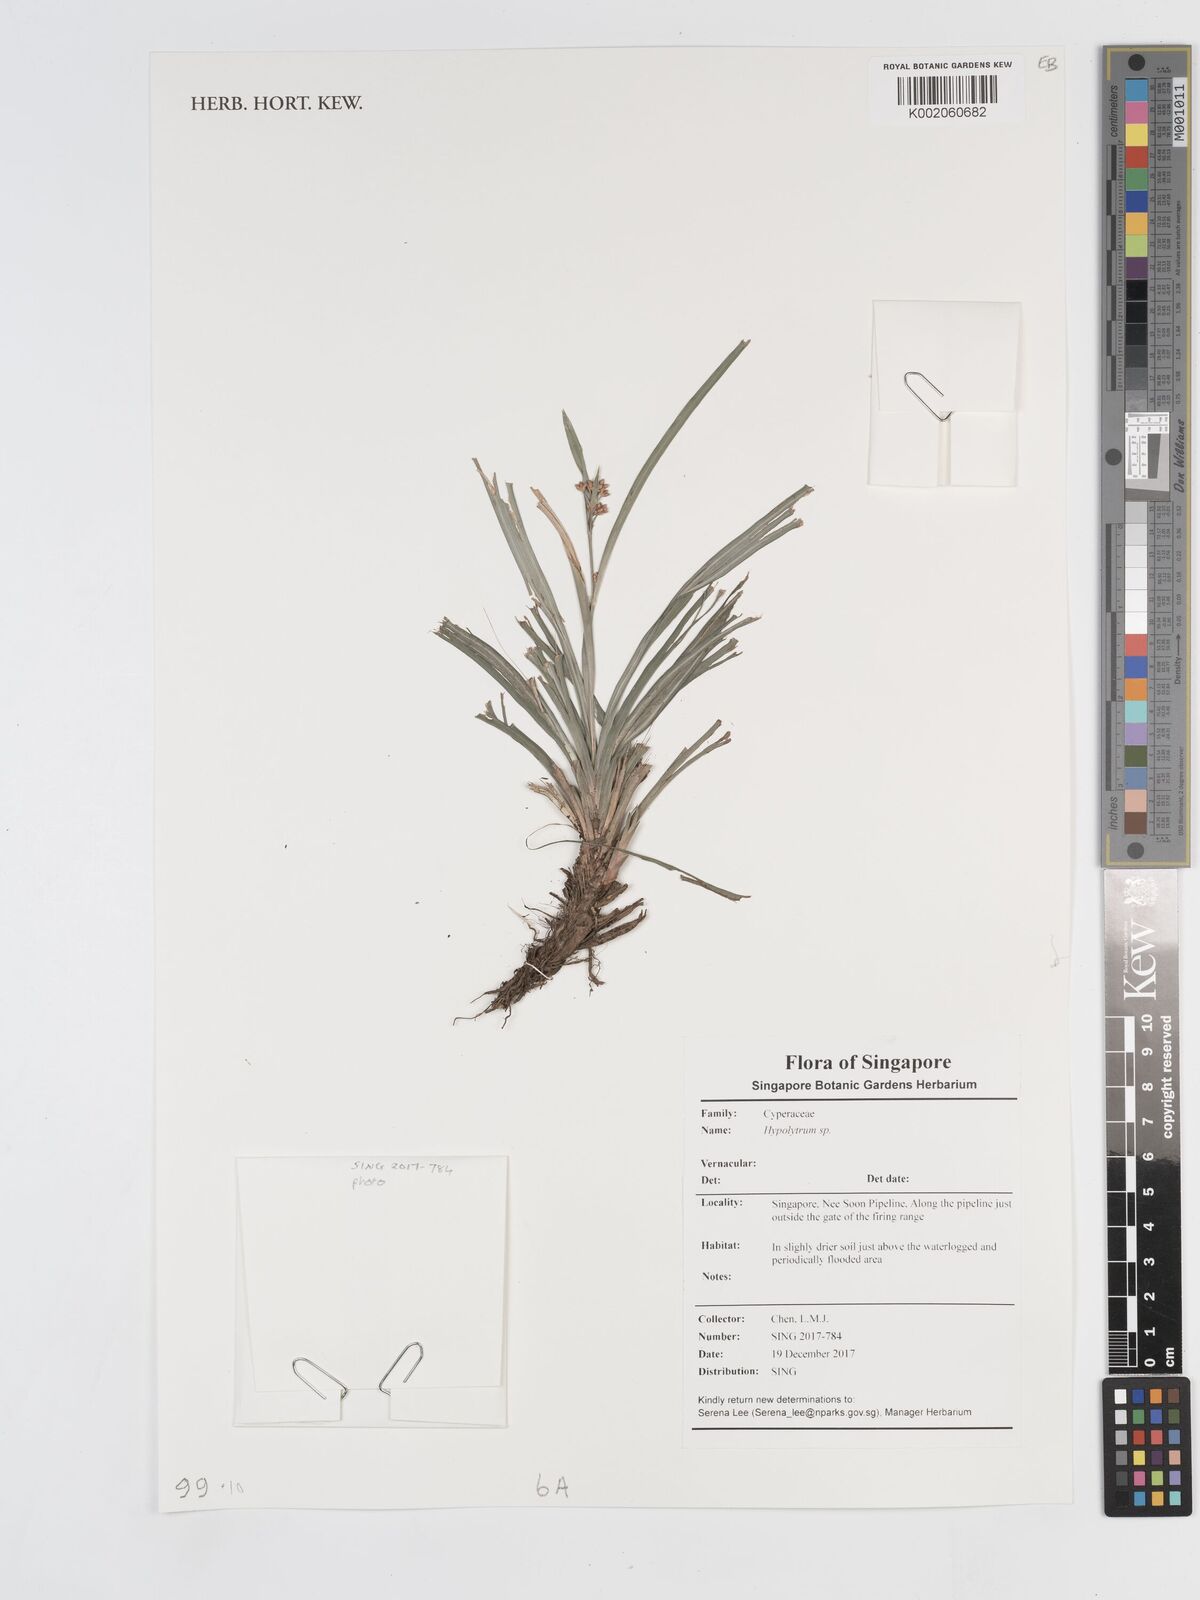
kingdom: Plantae
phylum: Tracheophyta
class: Liliopsida
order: Poales
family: Cyperaceae
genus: Hypolytrum
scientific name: Hypolytrum
